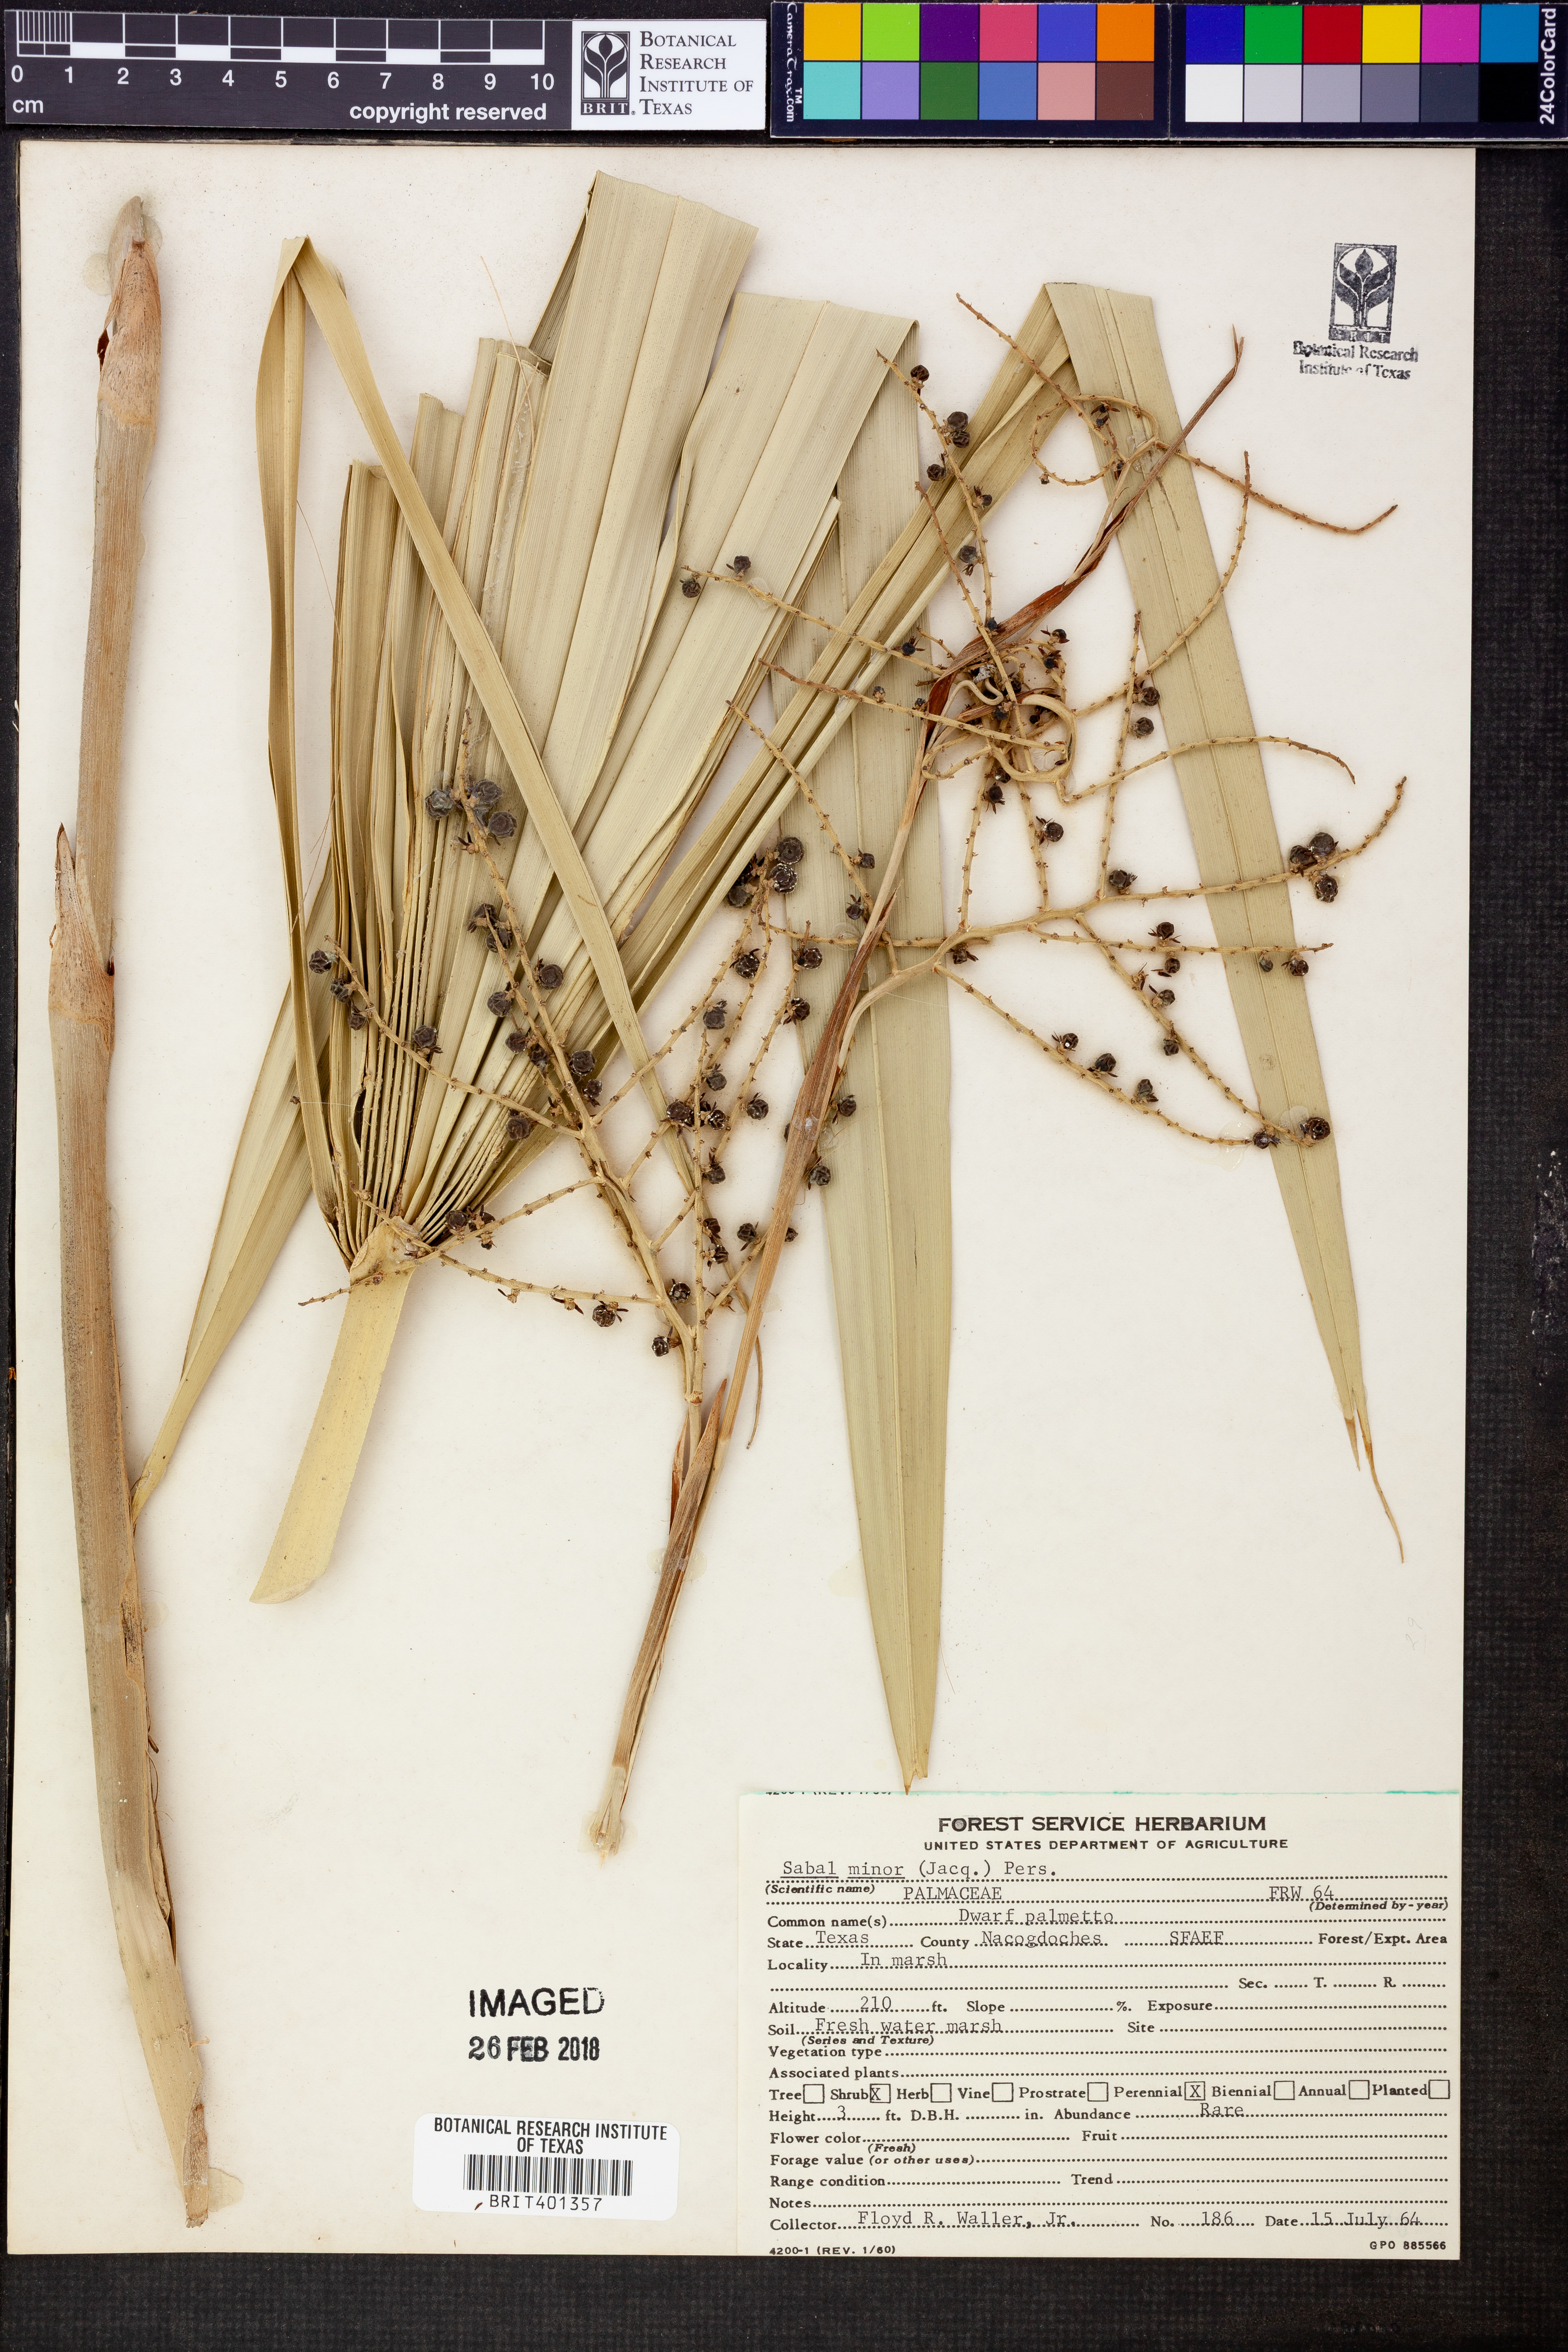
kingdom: Plantae
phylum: Tracheophyta
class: Liliopsida
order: Arecales
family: Arecaceae
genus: Sabal
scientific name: Sabal minor
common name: Dwarf palmetto
